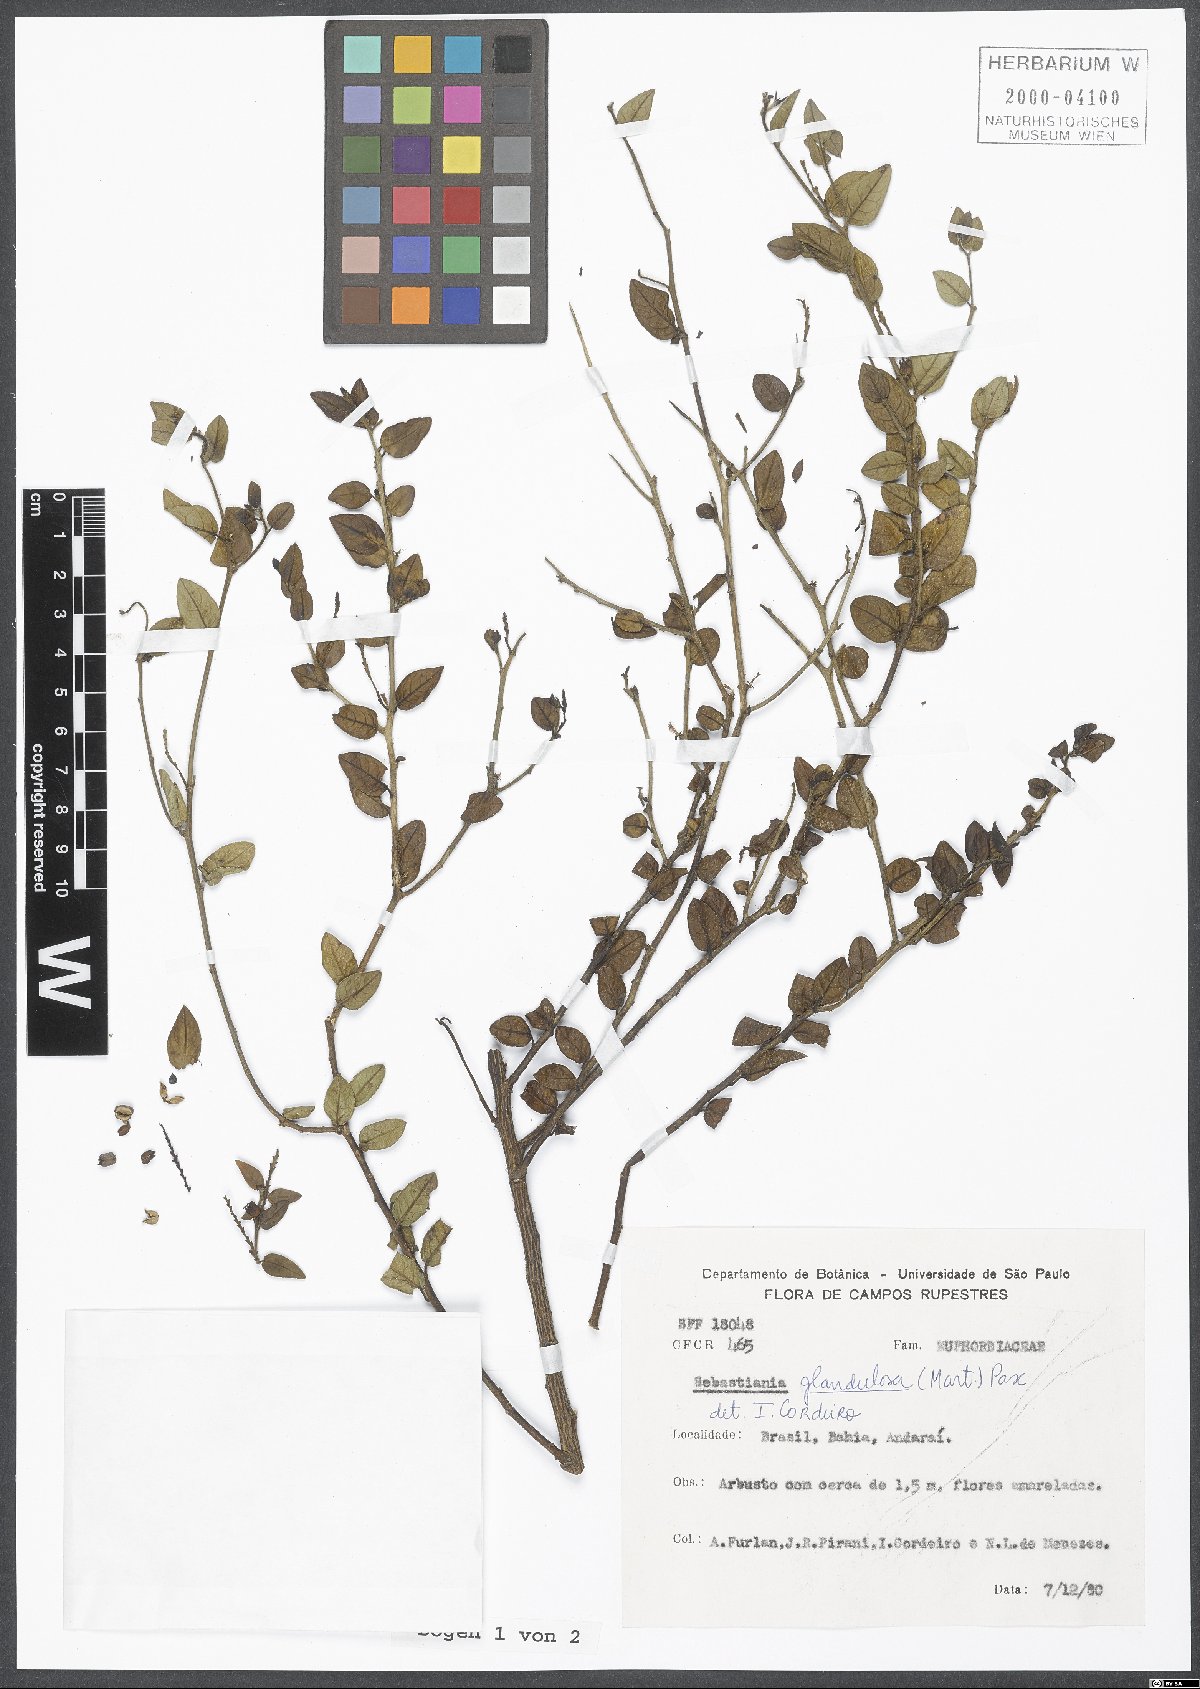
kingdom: Plantae
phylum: Tracheophyta
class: Magnoliopsida
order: Malpighiales
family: Euphorbiaceae
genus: Sebastiania
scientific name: Sebastiania glandulosa
